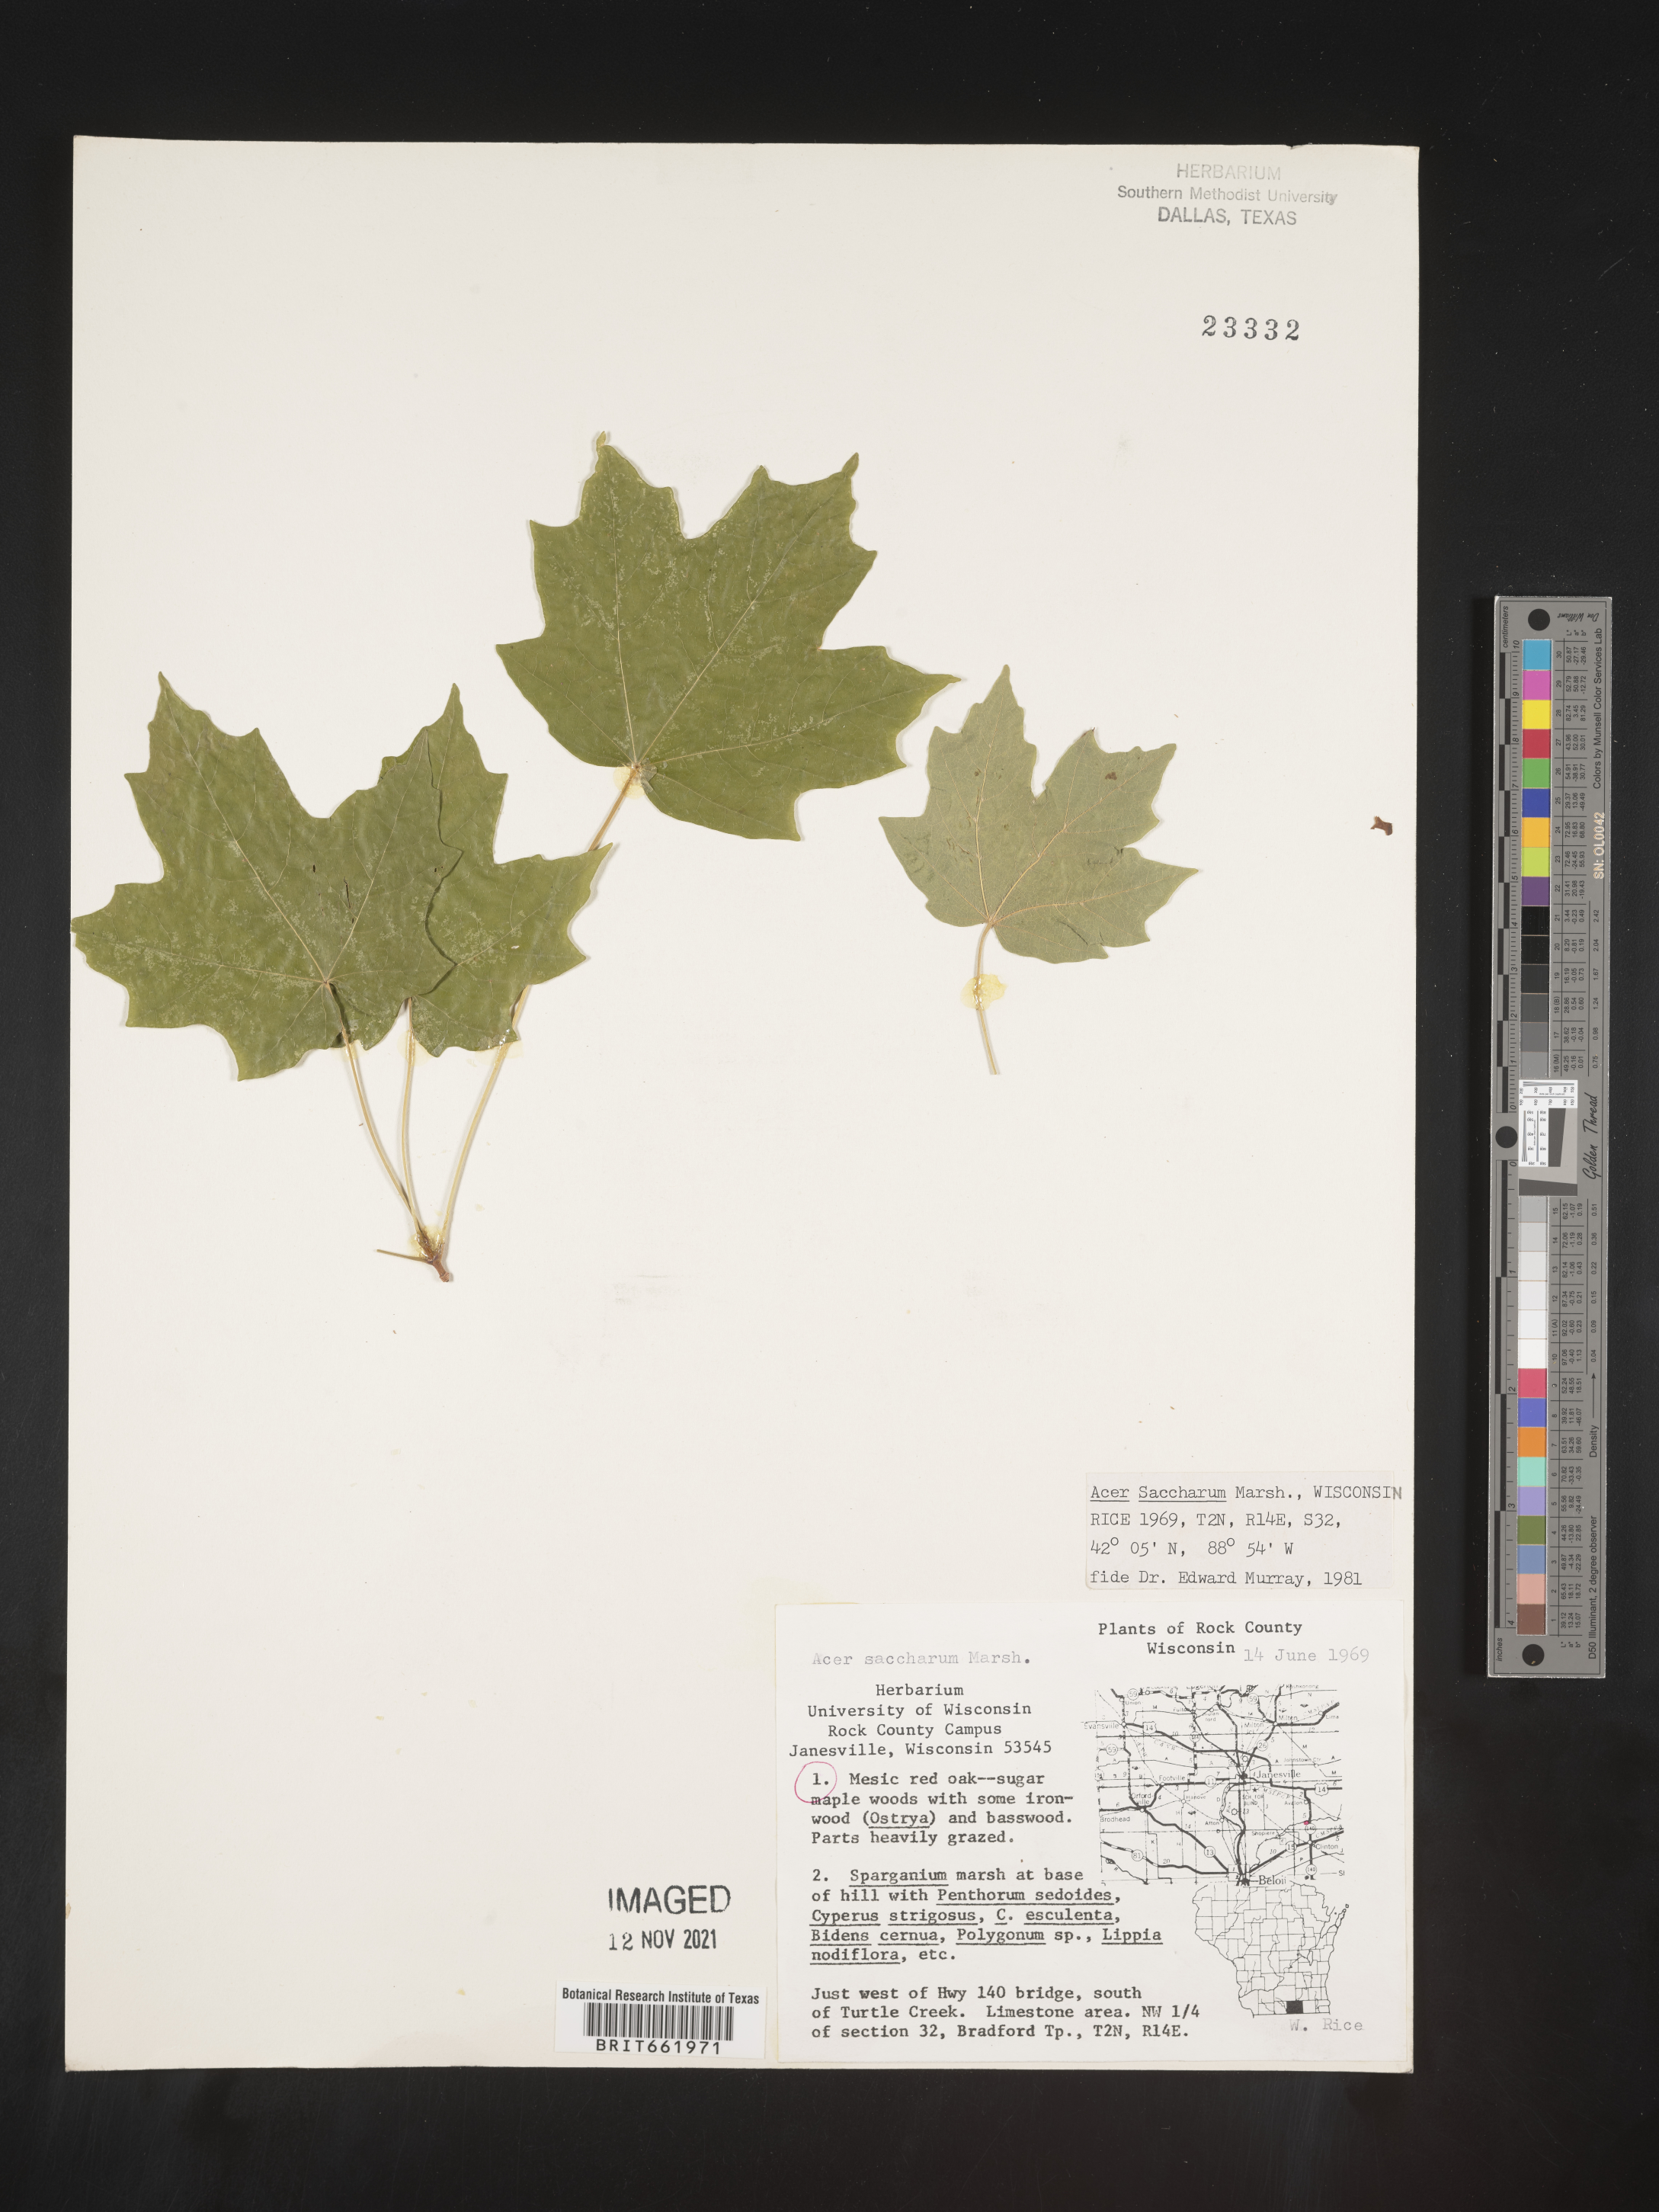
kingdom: Plantae
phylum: Tracheophyta
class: Magnoliopsida
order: Sapindales
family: Sapindaceae
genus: Acer
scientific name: Acer saccharum
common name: Sugar maple
